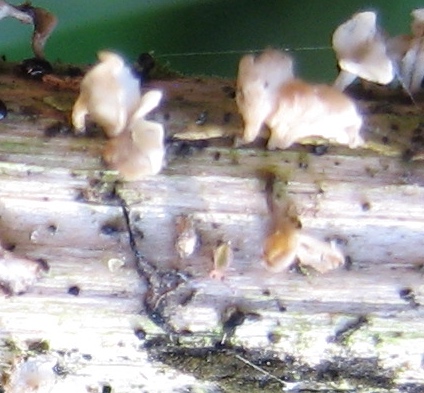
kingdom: Fungi
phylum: Basidiomycota
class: Agaricomycetes
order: Agaricales
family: Marasmiaceae
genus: Calyptella
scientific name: Calyptella capula
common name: hvidlig nældehue
